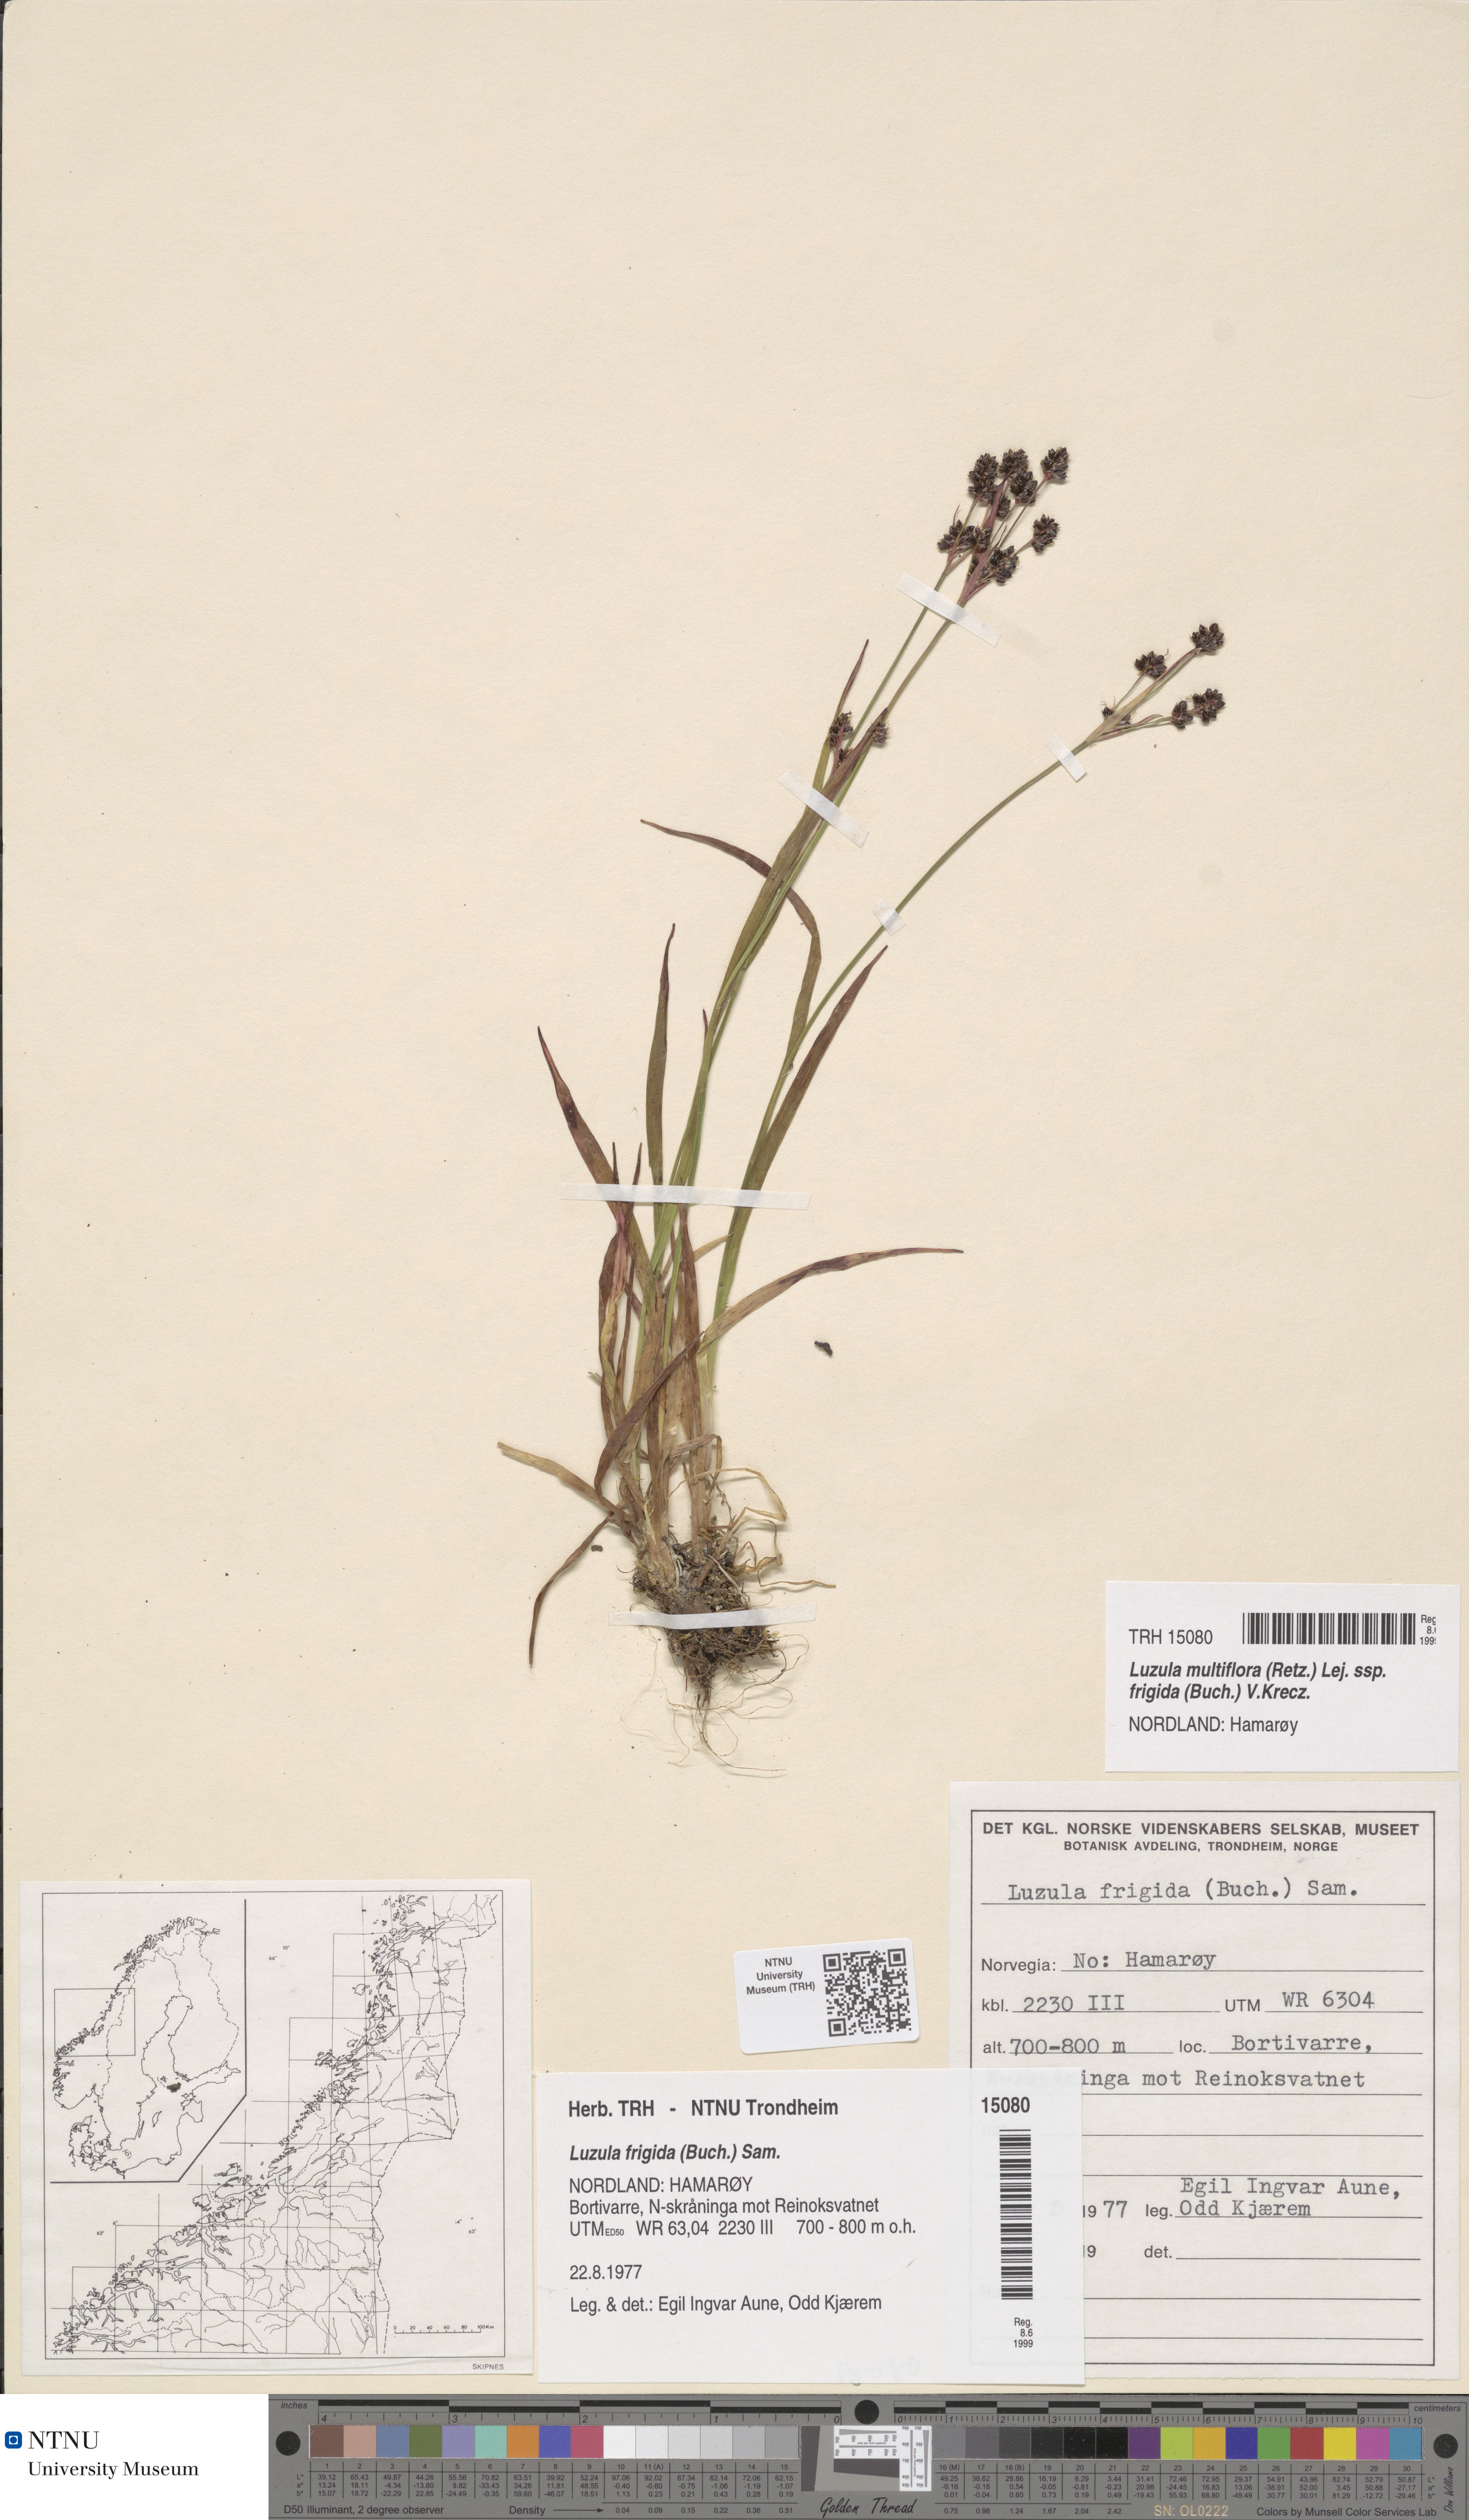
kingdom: Plantae
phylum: Tracheophyta
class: Liliopsida
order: Poales
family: Juncaceae
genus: Luzula
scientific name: Luzula multiflora
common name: Heath wood-rush
